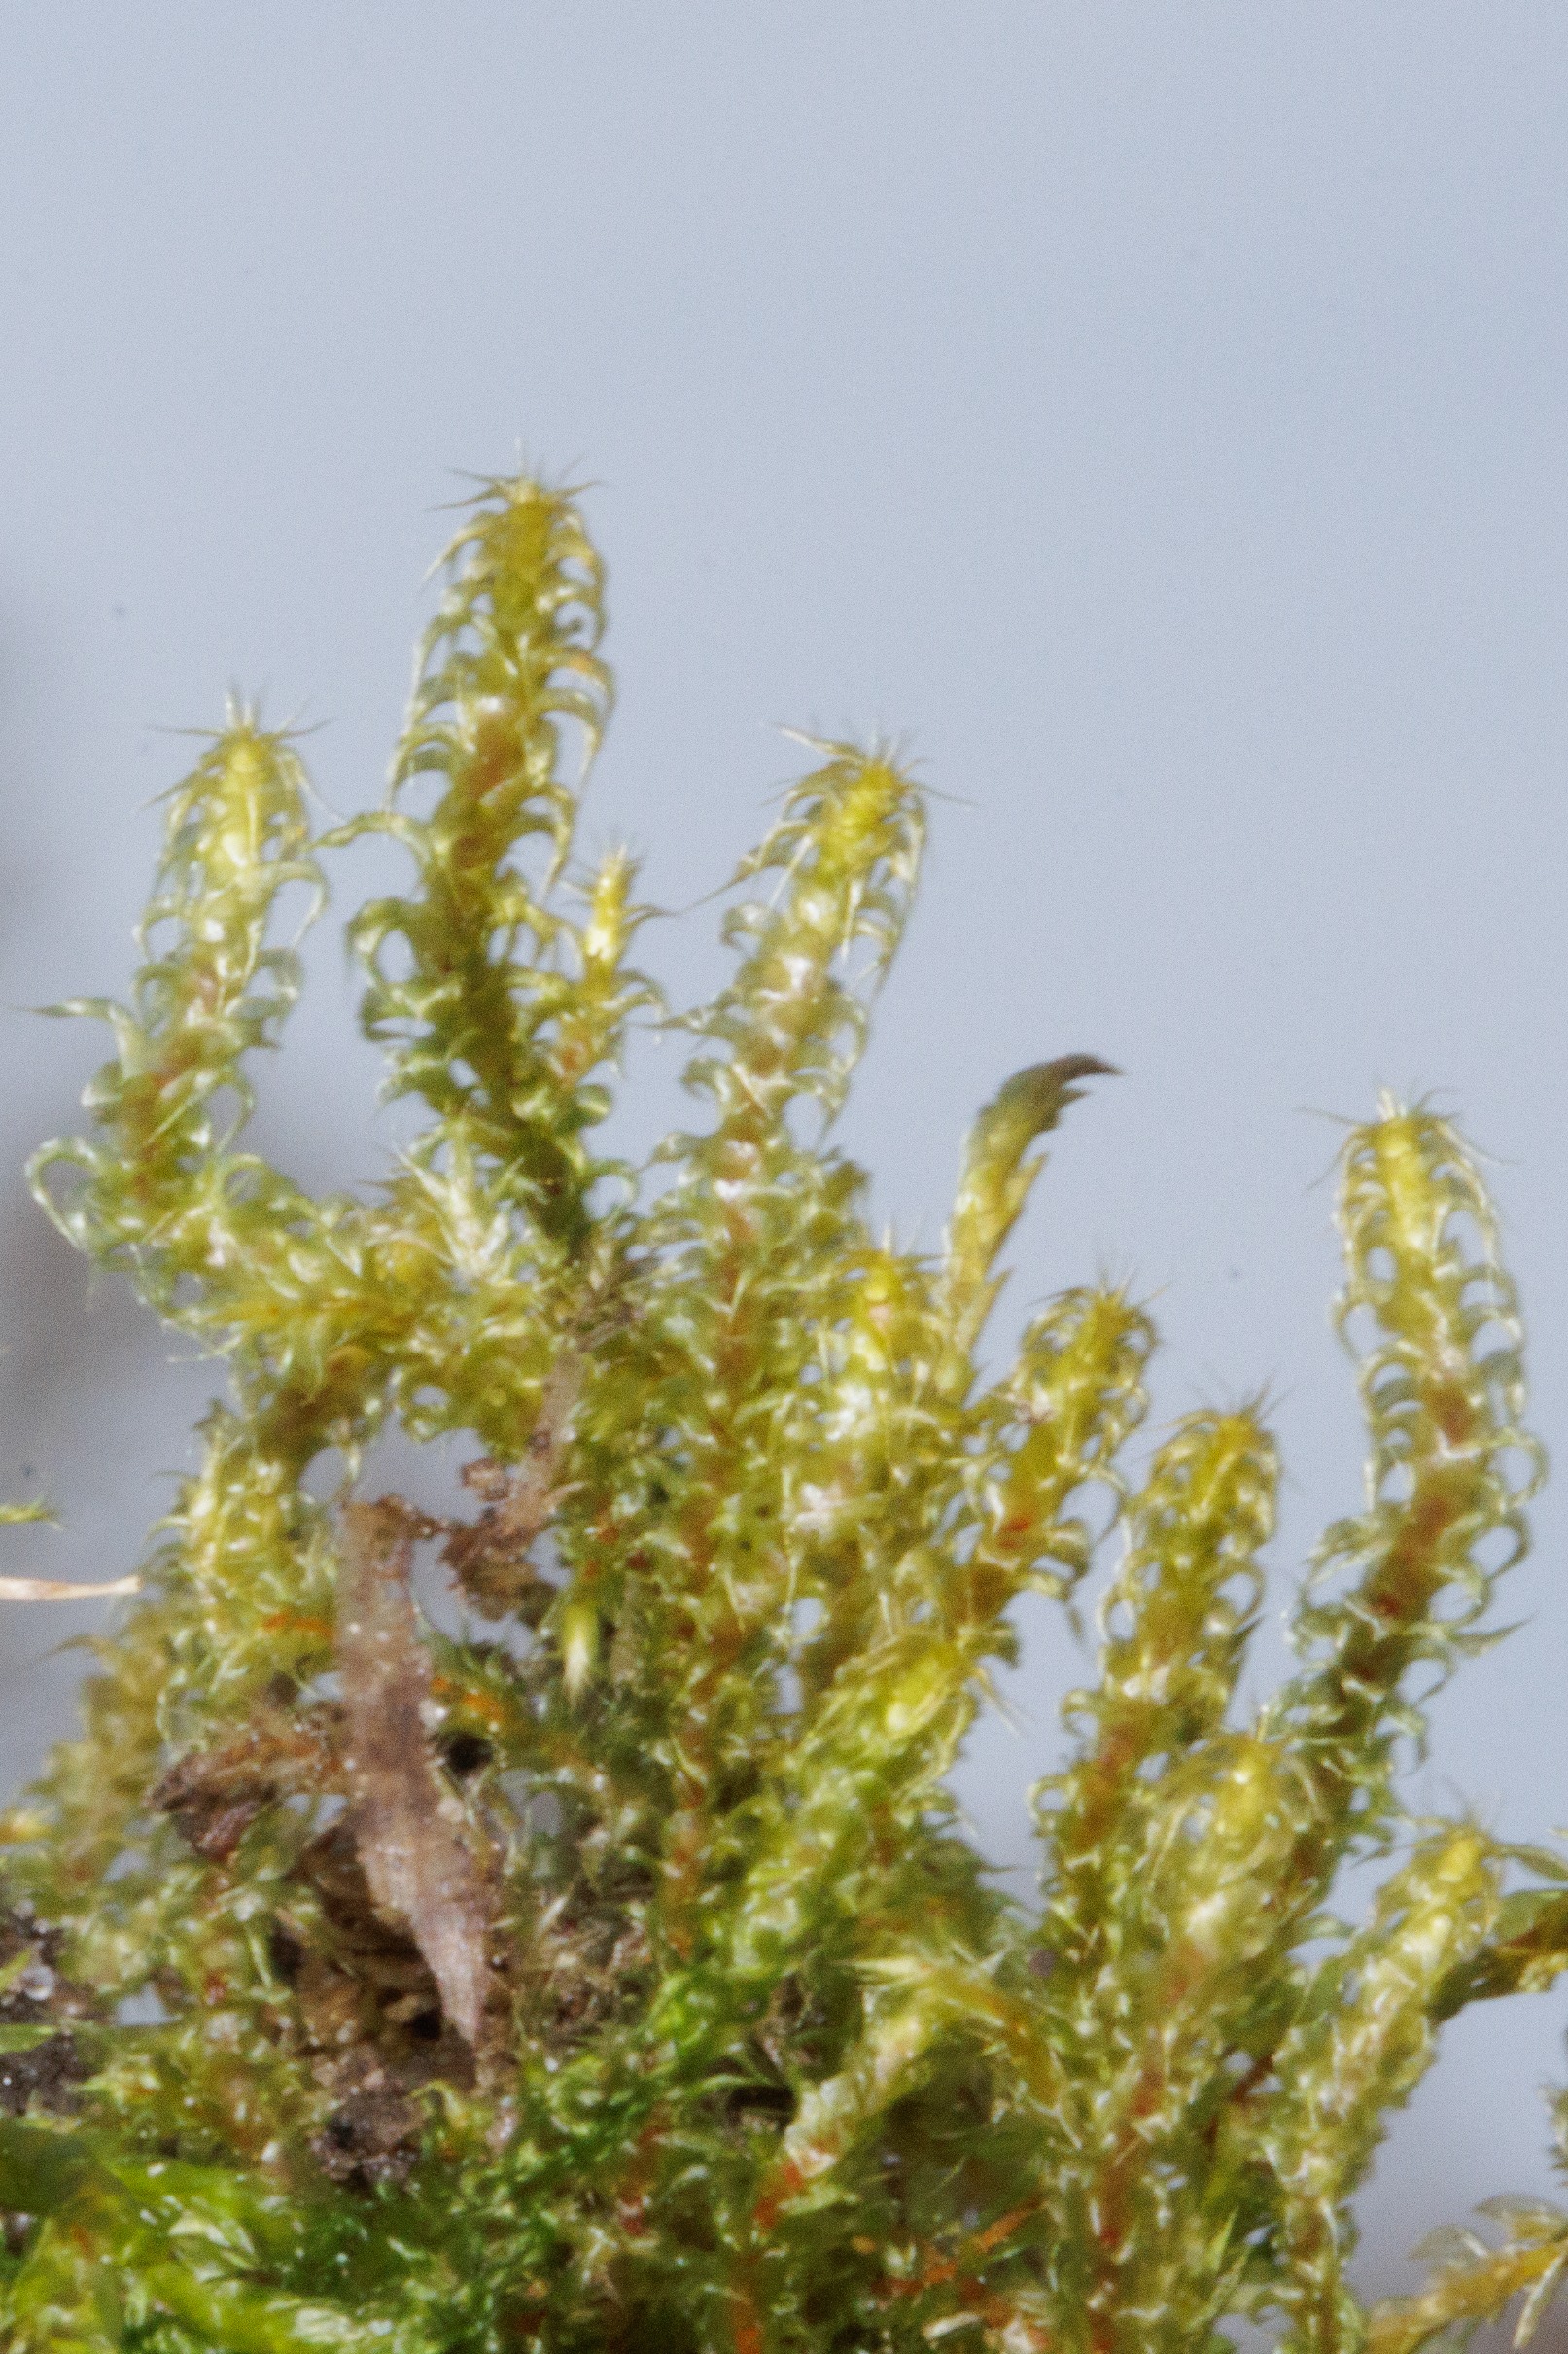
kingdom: Plantae
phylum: Bryophyta
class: Bryopsida
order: Hypnales
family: Hylocomiaceae
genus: Rhytidiadelphus
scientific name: Rhytidiadelphus squarrosus
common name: Plæne-kransemos
